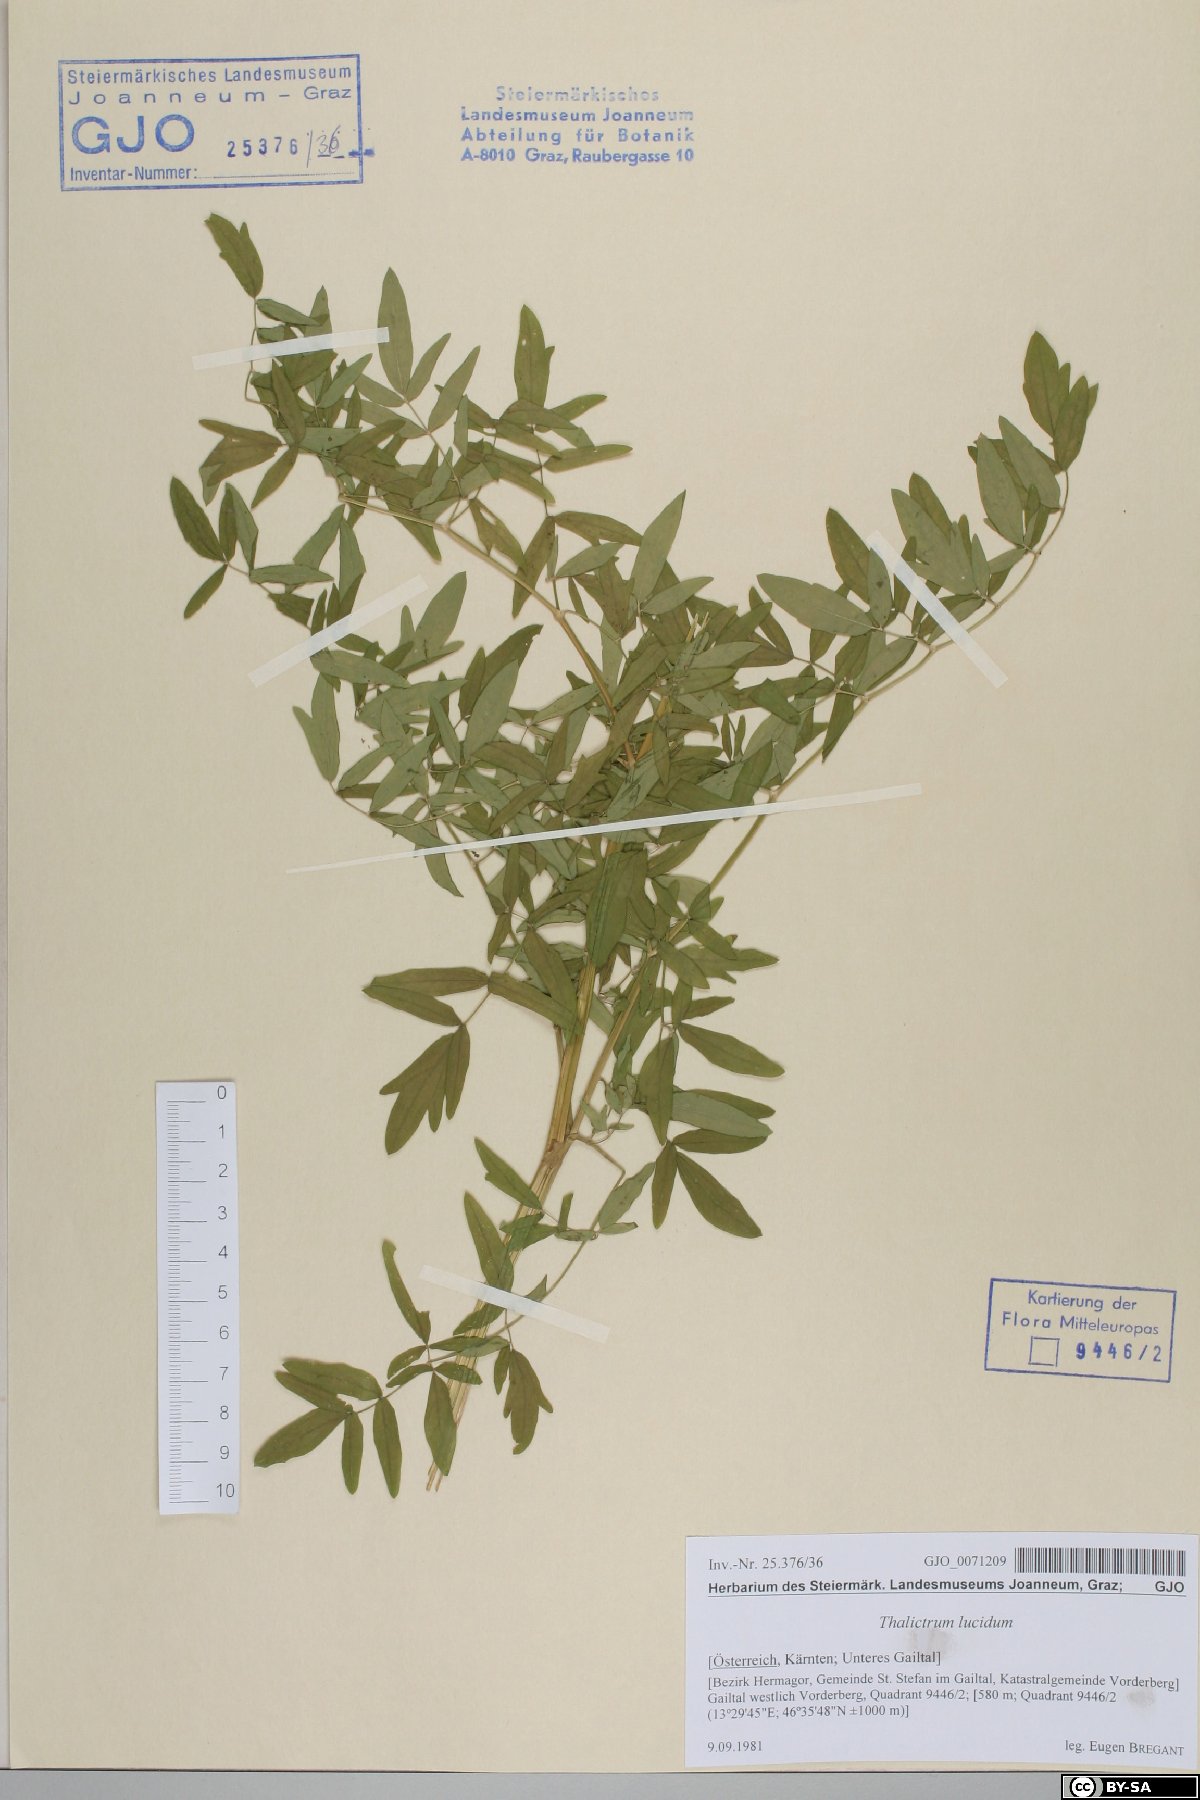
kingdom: Plantae
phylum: Tracheophyta
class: Magnoliopsida
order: Ranunculales
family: Ranunculaceae
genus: Thalictrum
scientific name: Thalictrum lucidum
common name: Shining meadow-rue
